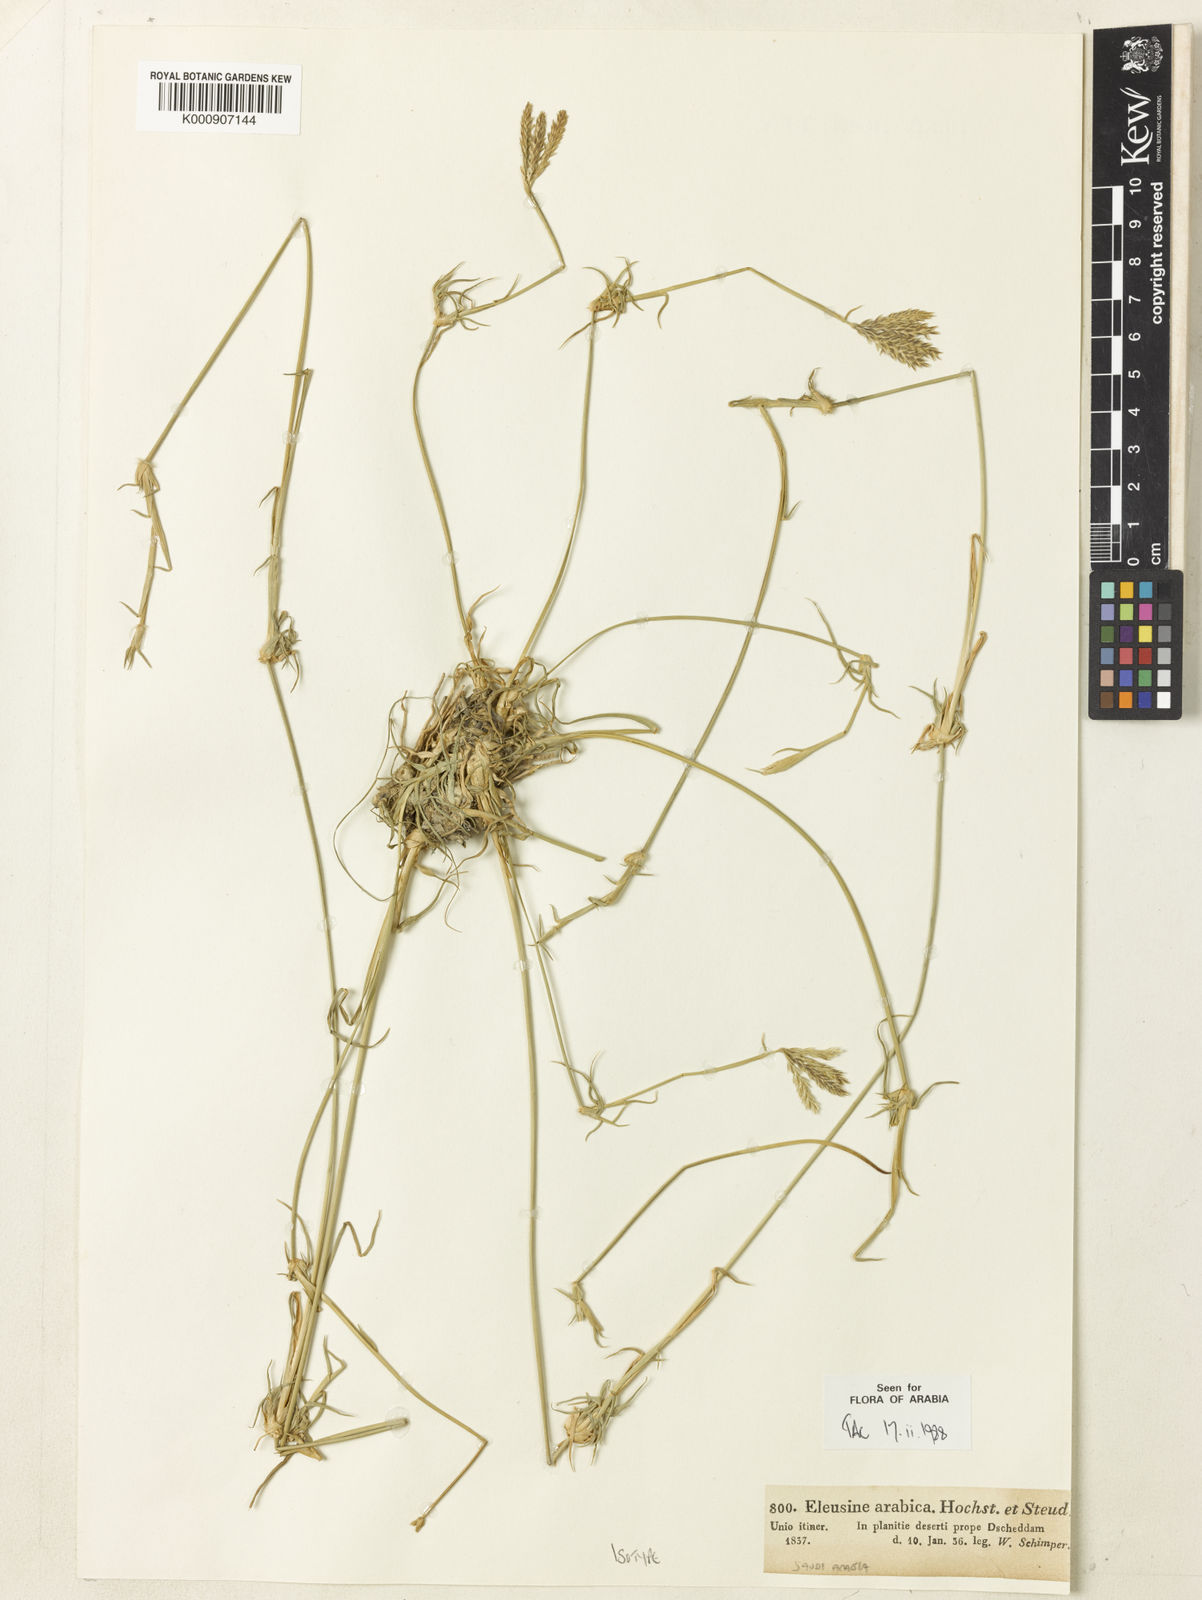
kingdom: Plantae
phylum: Tracheophyta
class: Liliopsida
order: Poales
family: Poaceae
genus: Chloris
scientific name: Chloris flagellifera
